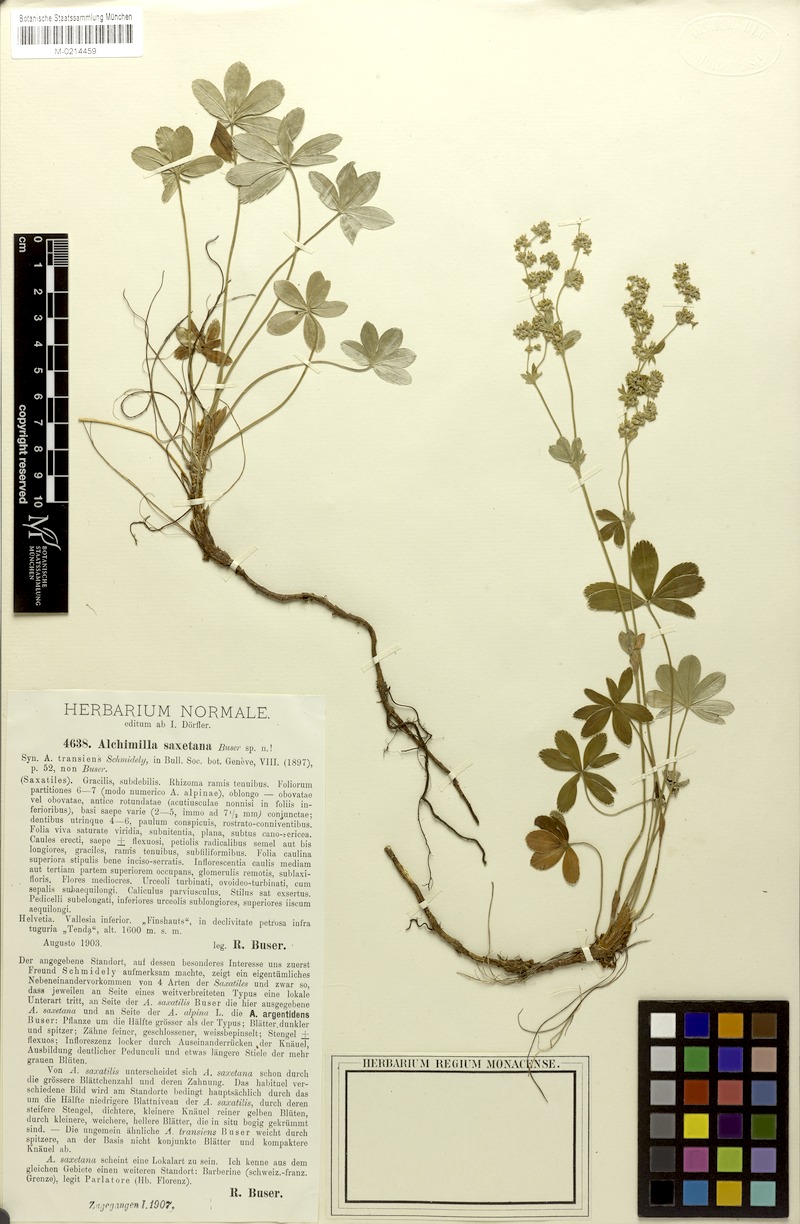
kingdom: Plantae
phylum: Tracheophyta
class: Magnoliopsida
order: Rosales
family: Rosaceae
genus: Alchemilla
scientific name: Alchemilla saxetana
